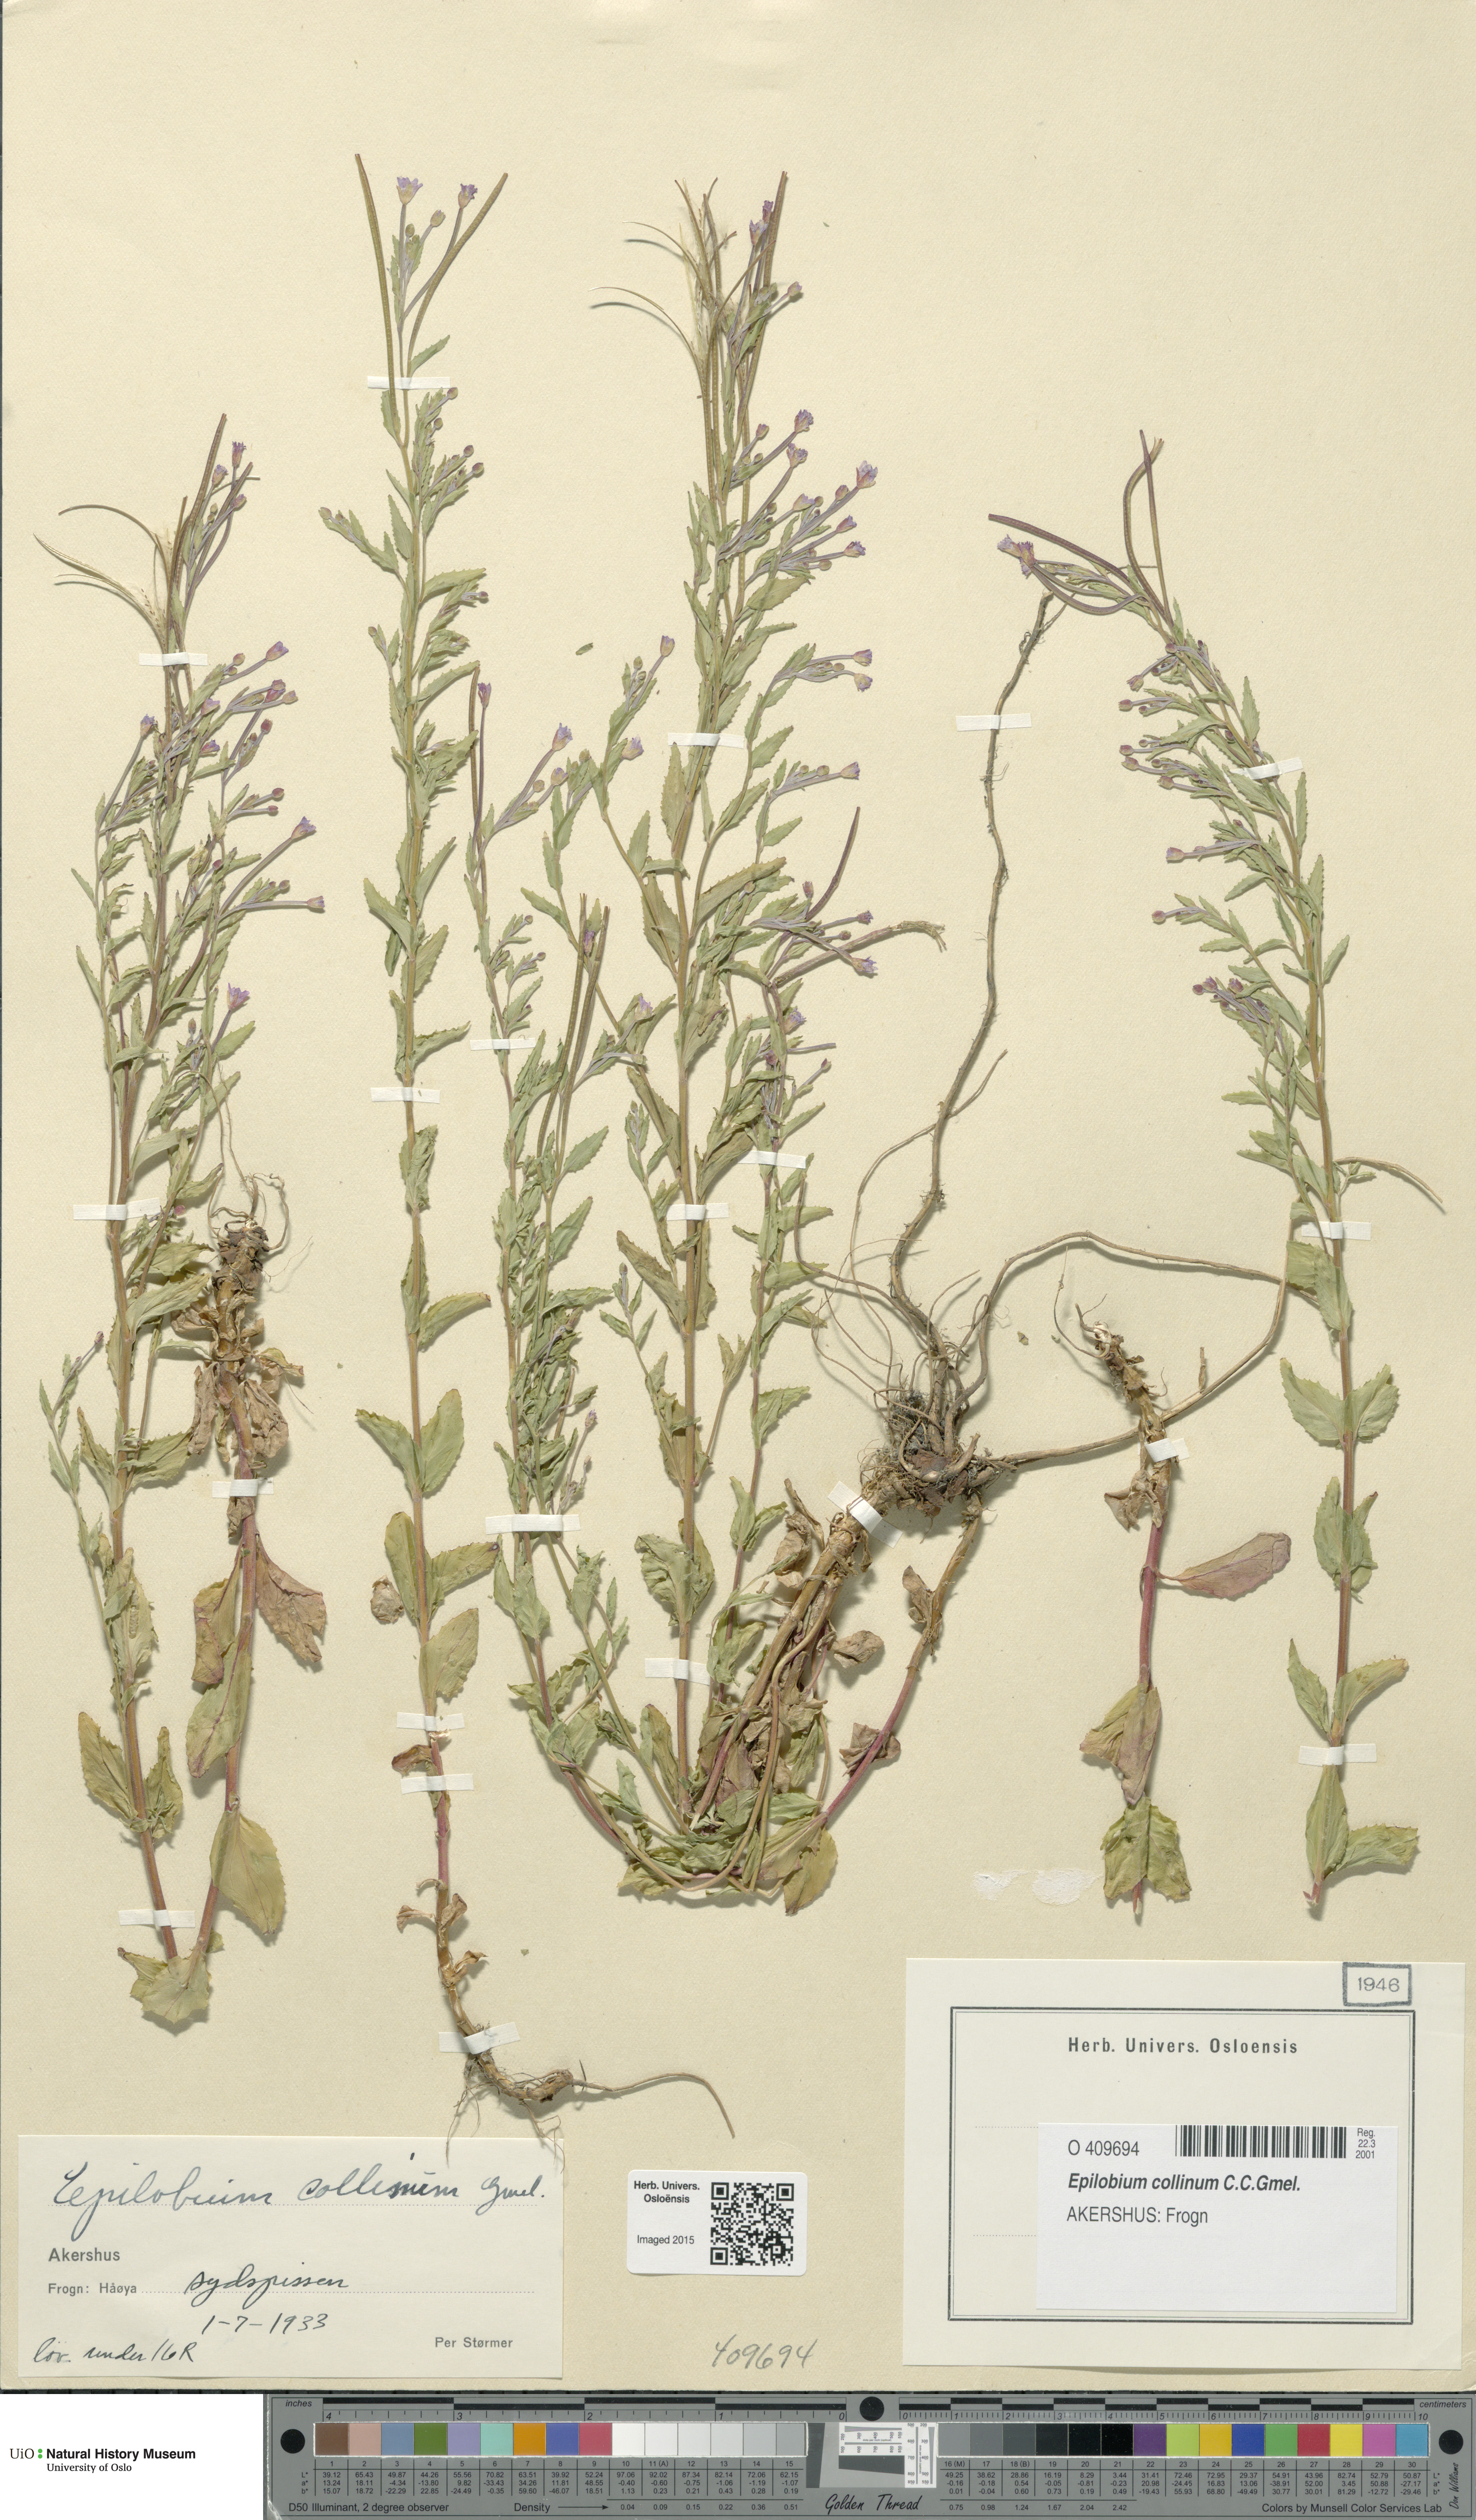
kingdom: Plantae
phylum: Tracheophyta
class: Magnoliopsida
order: Myrtales
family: Onagraceae
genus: Epilobium
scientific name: Epilobium collinum
